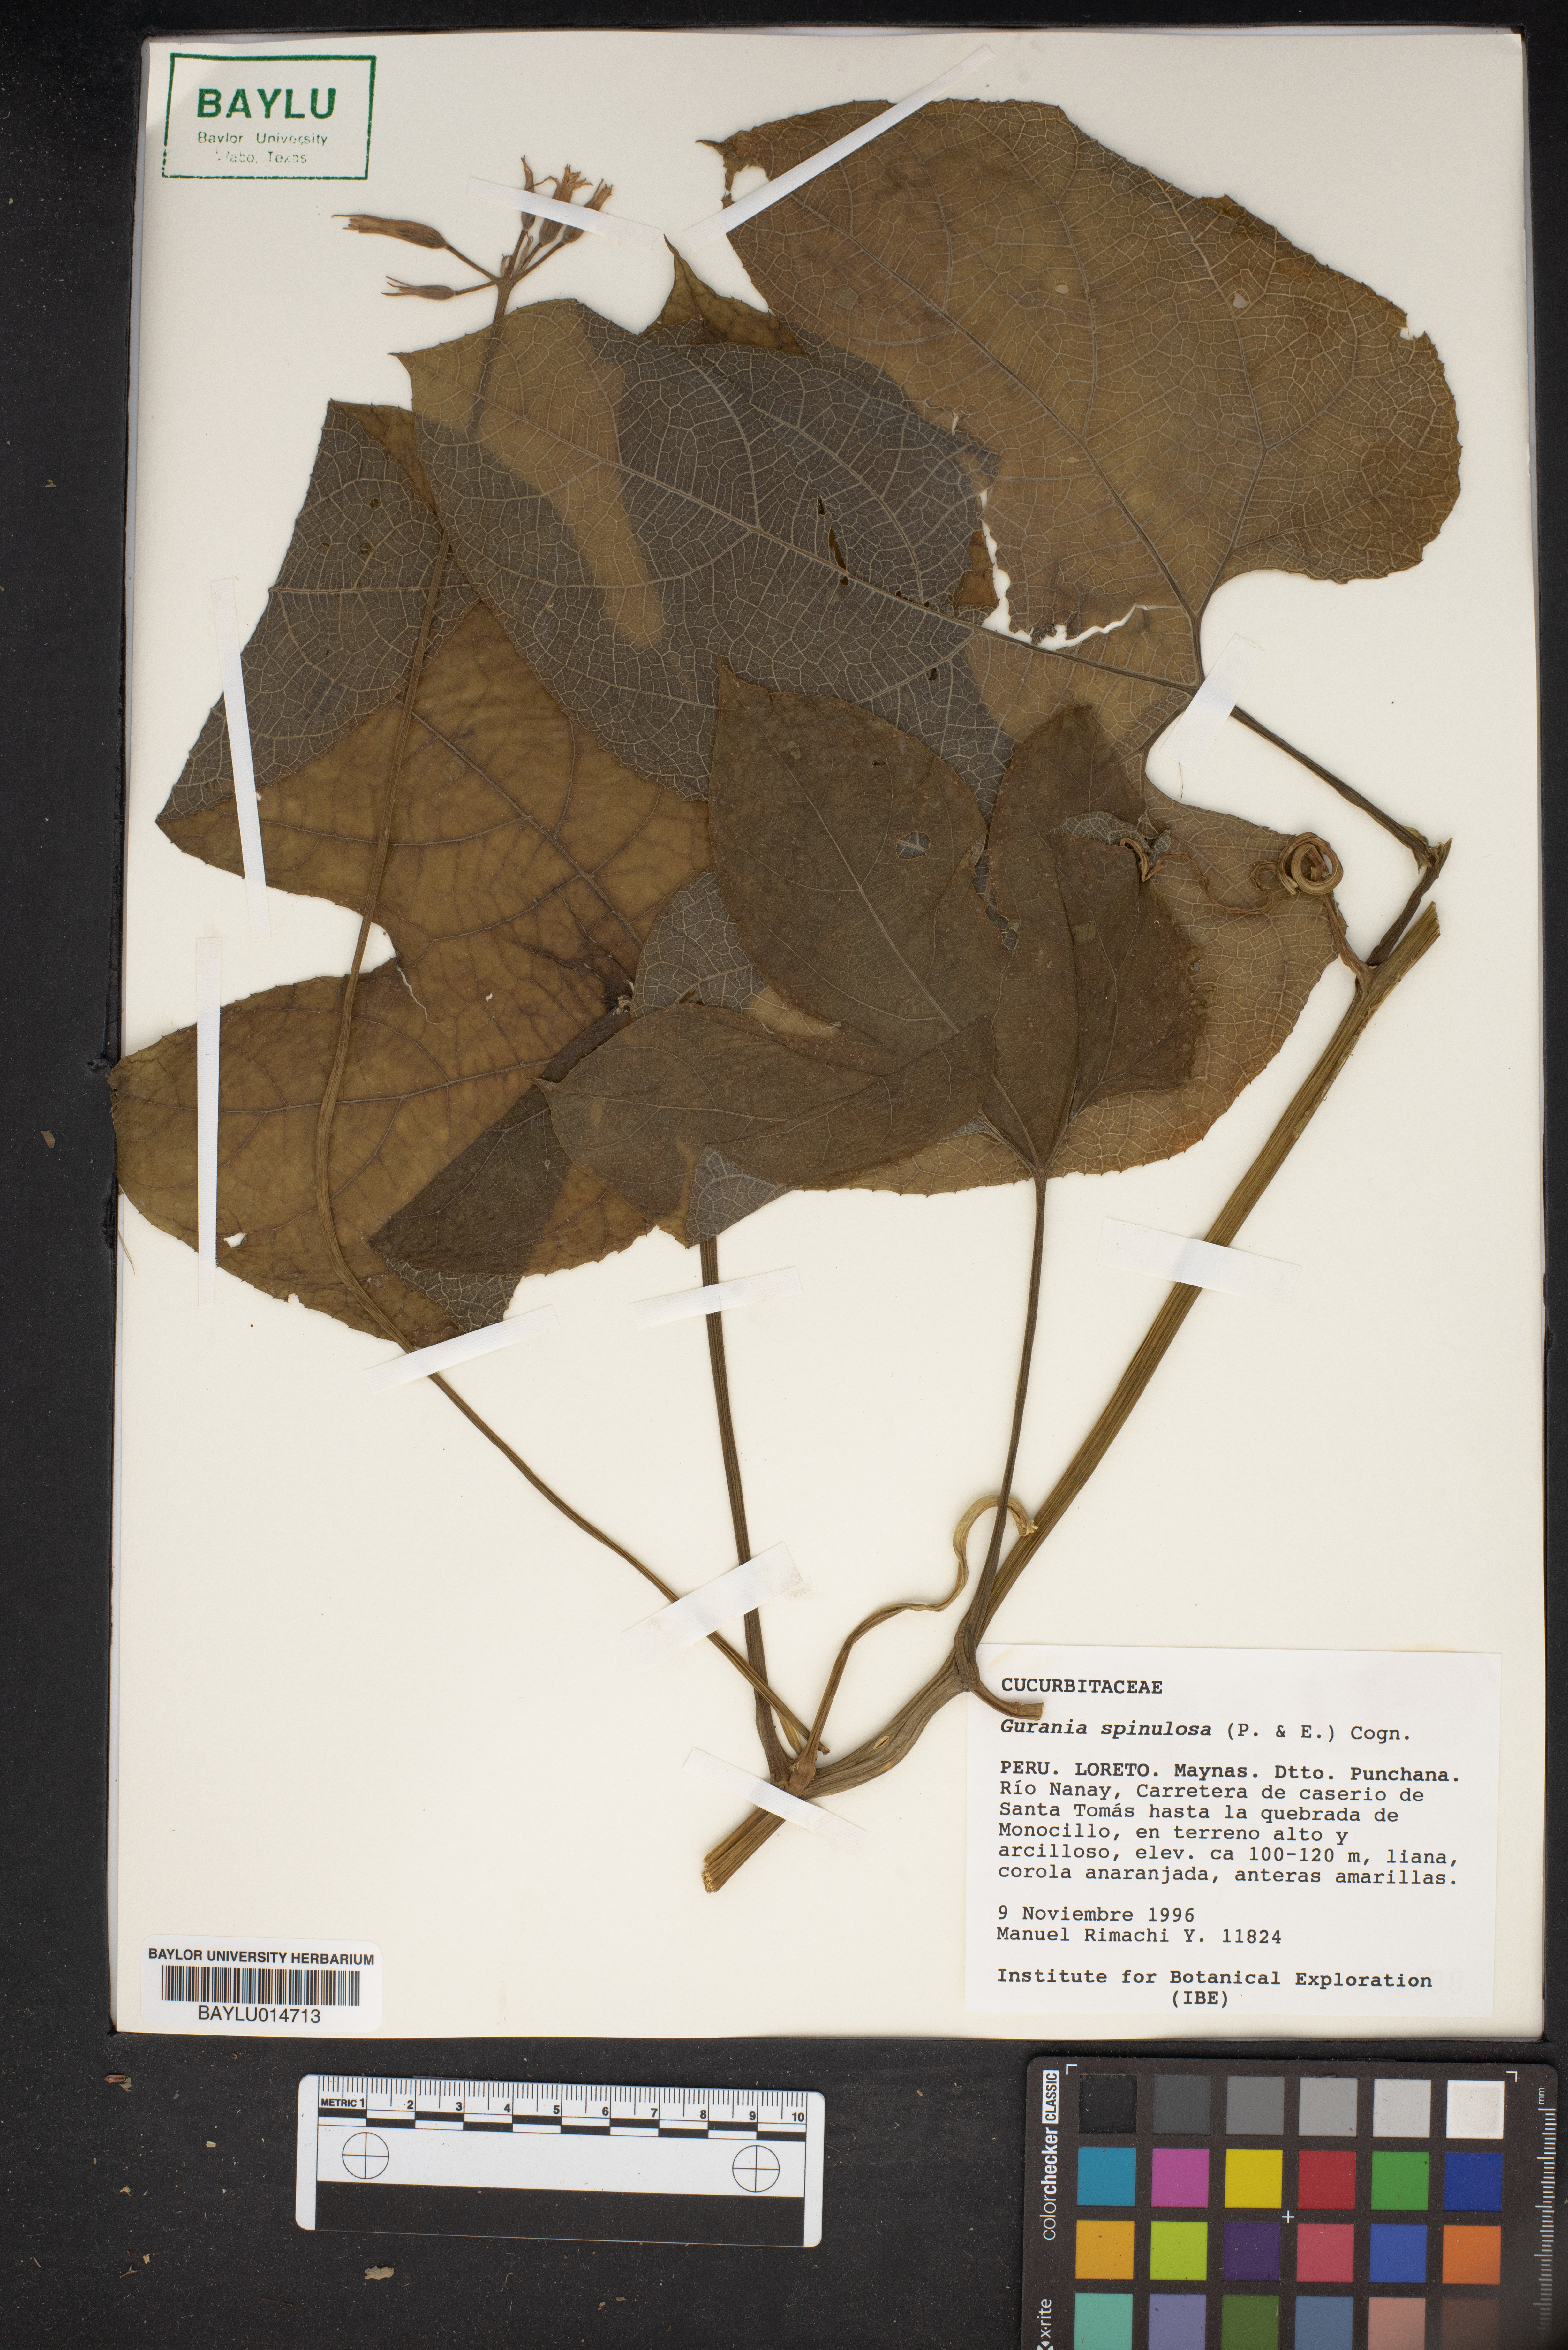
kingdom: Plantae
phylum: Tracheophyta
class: Magnoliopsida
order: Cucurbitales
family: Cucurbitaceae
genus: Gurania
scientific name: Gurania lobata
